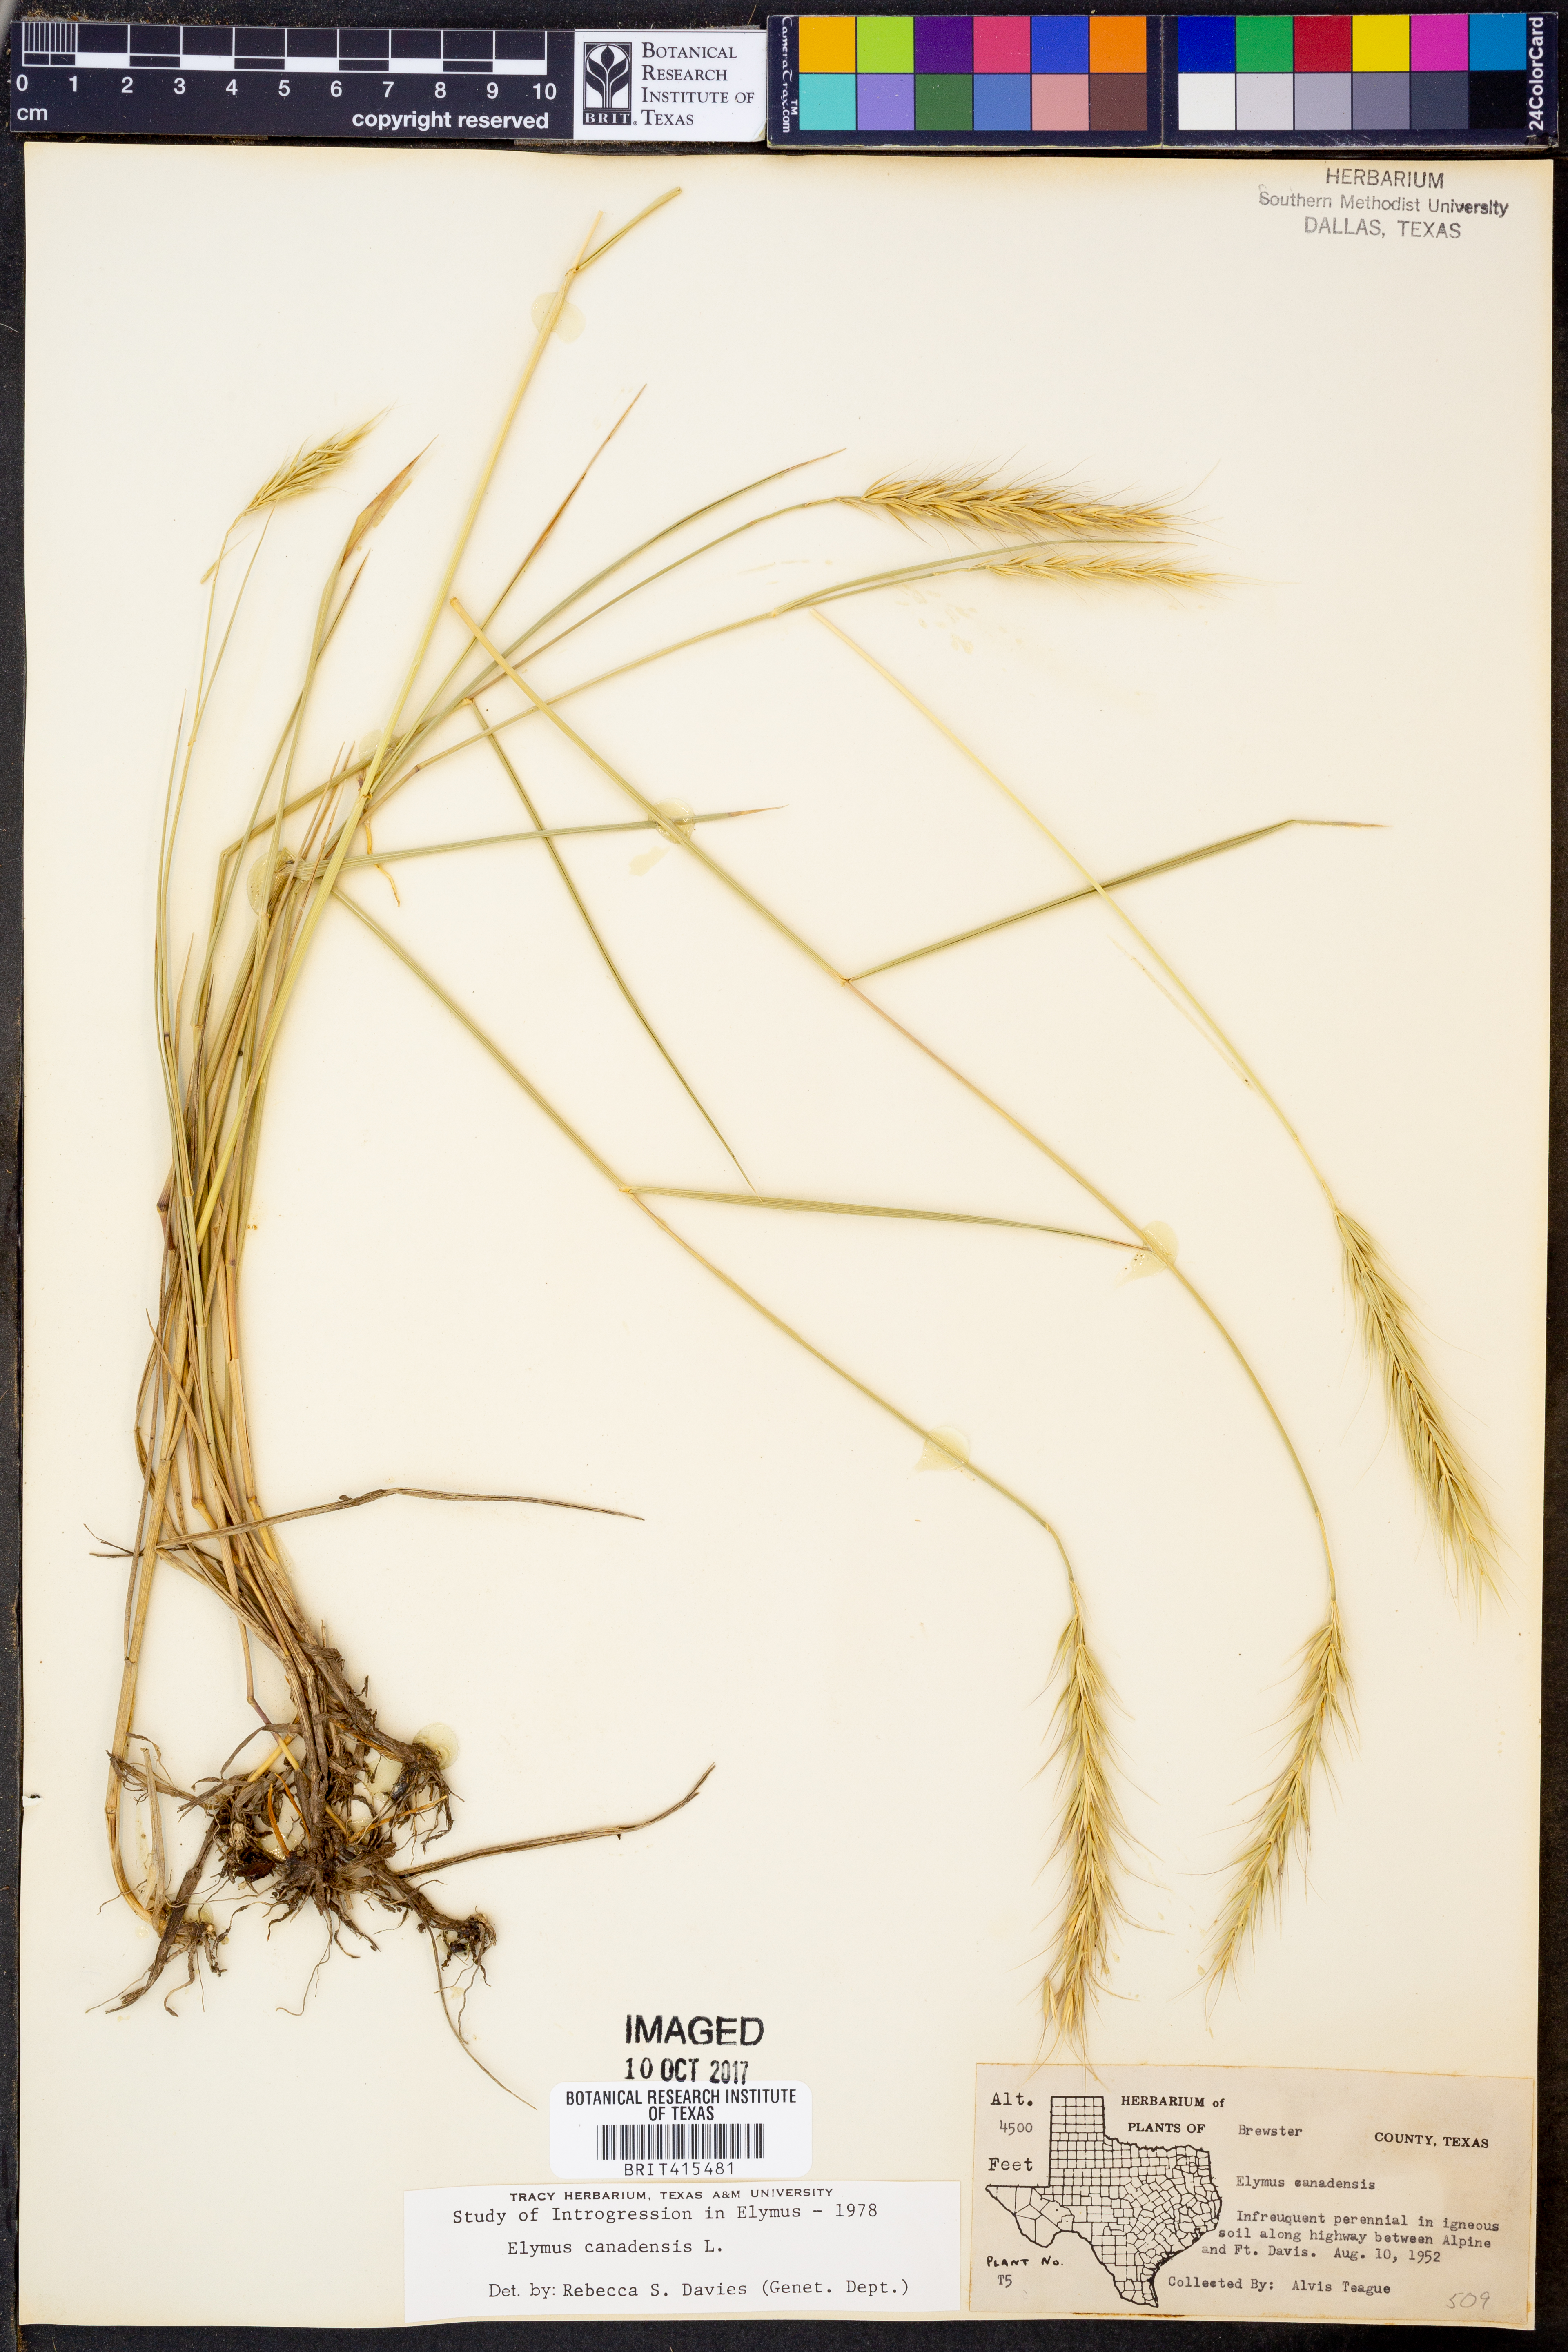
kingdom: Plantae
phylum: Tracheophyta
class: Liliopsida
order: Poales
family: Poaceae
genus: Elymus
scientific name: Elymus canadensis
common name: Canada wild rye
